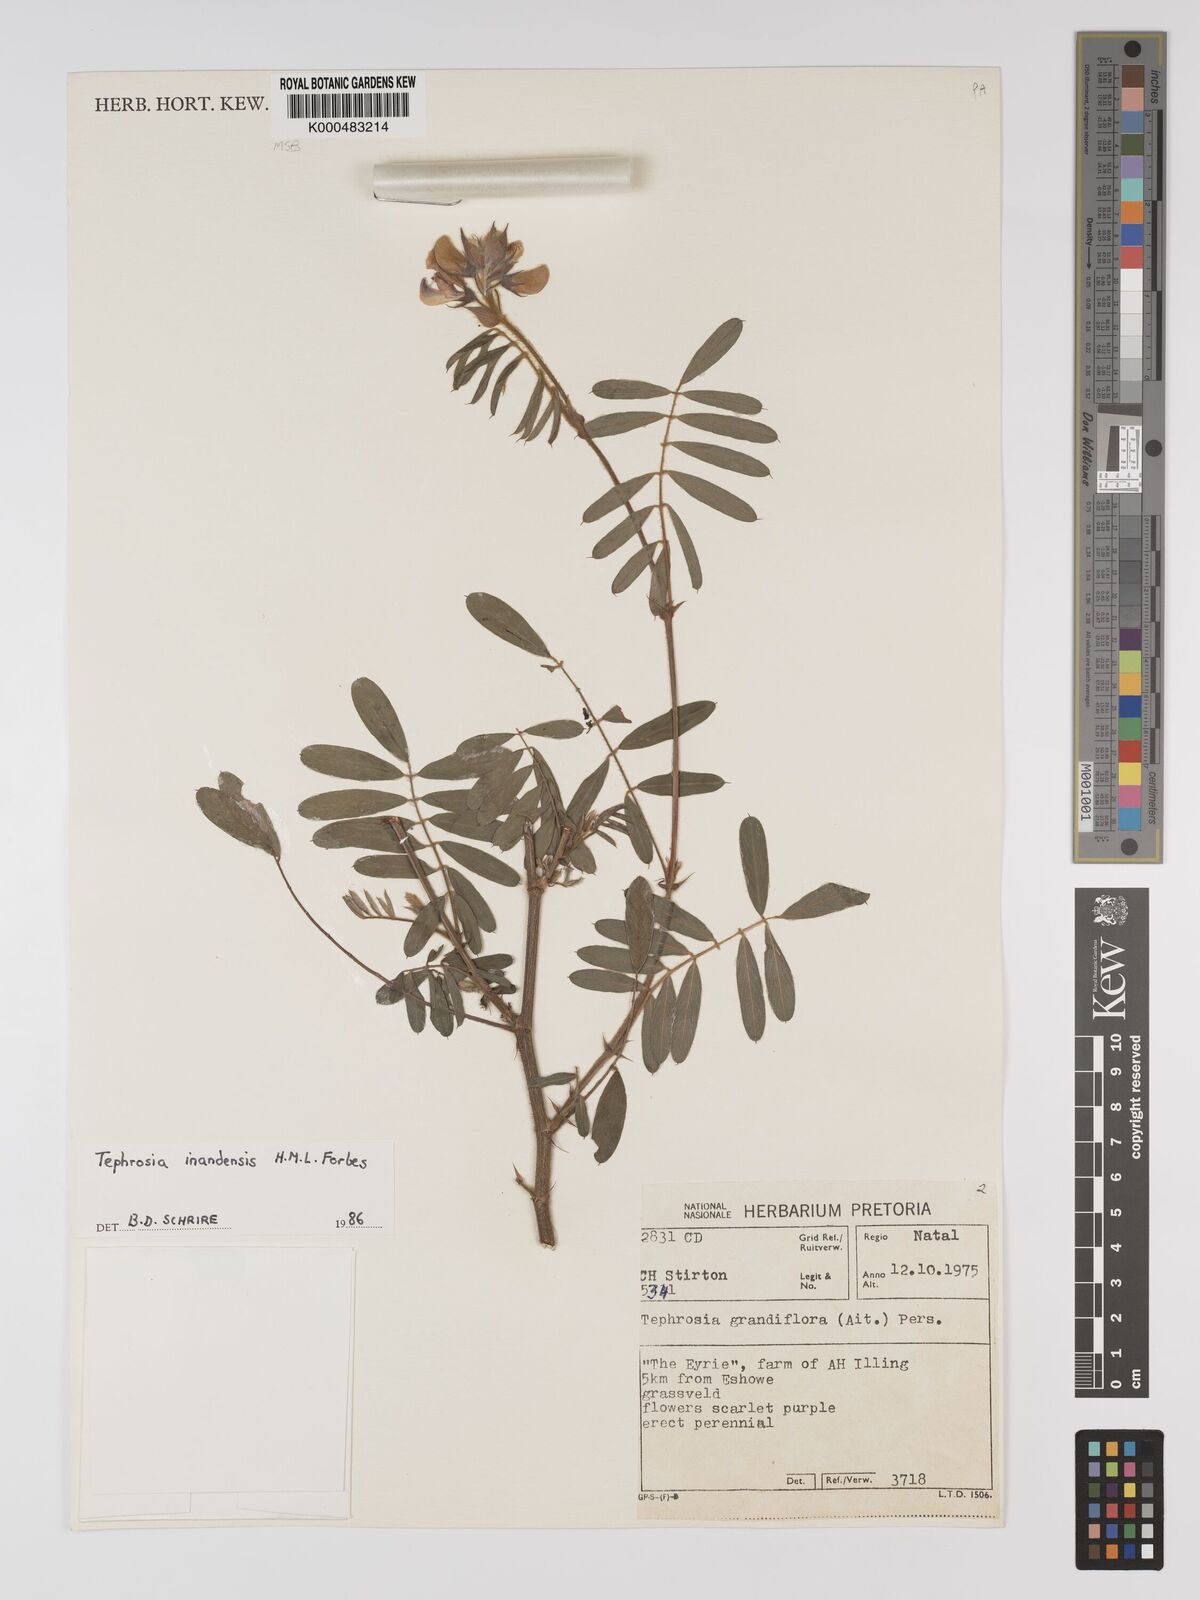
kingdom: Plantae
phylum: Tracheophyta
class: Magnoliopsida
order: Fabales
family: Fabaceae
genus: Tephrosia
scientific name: Tephrosia inandensis
